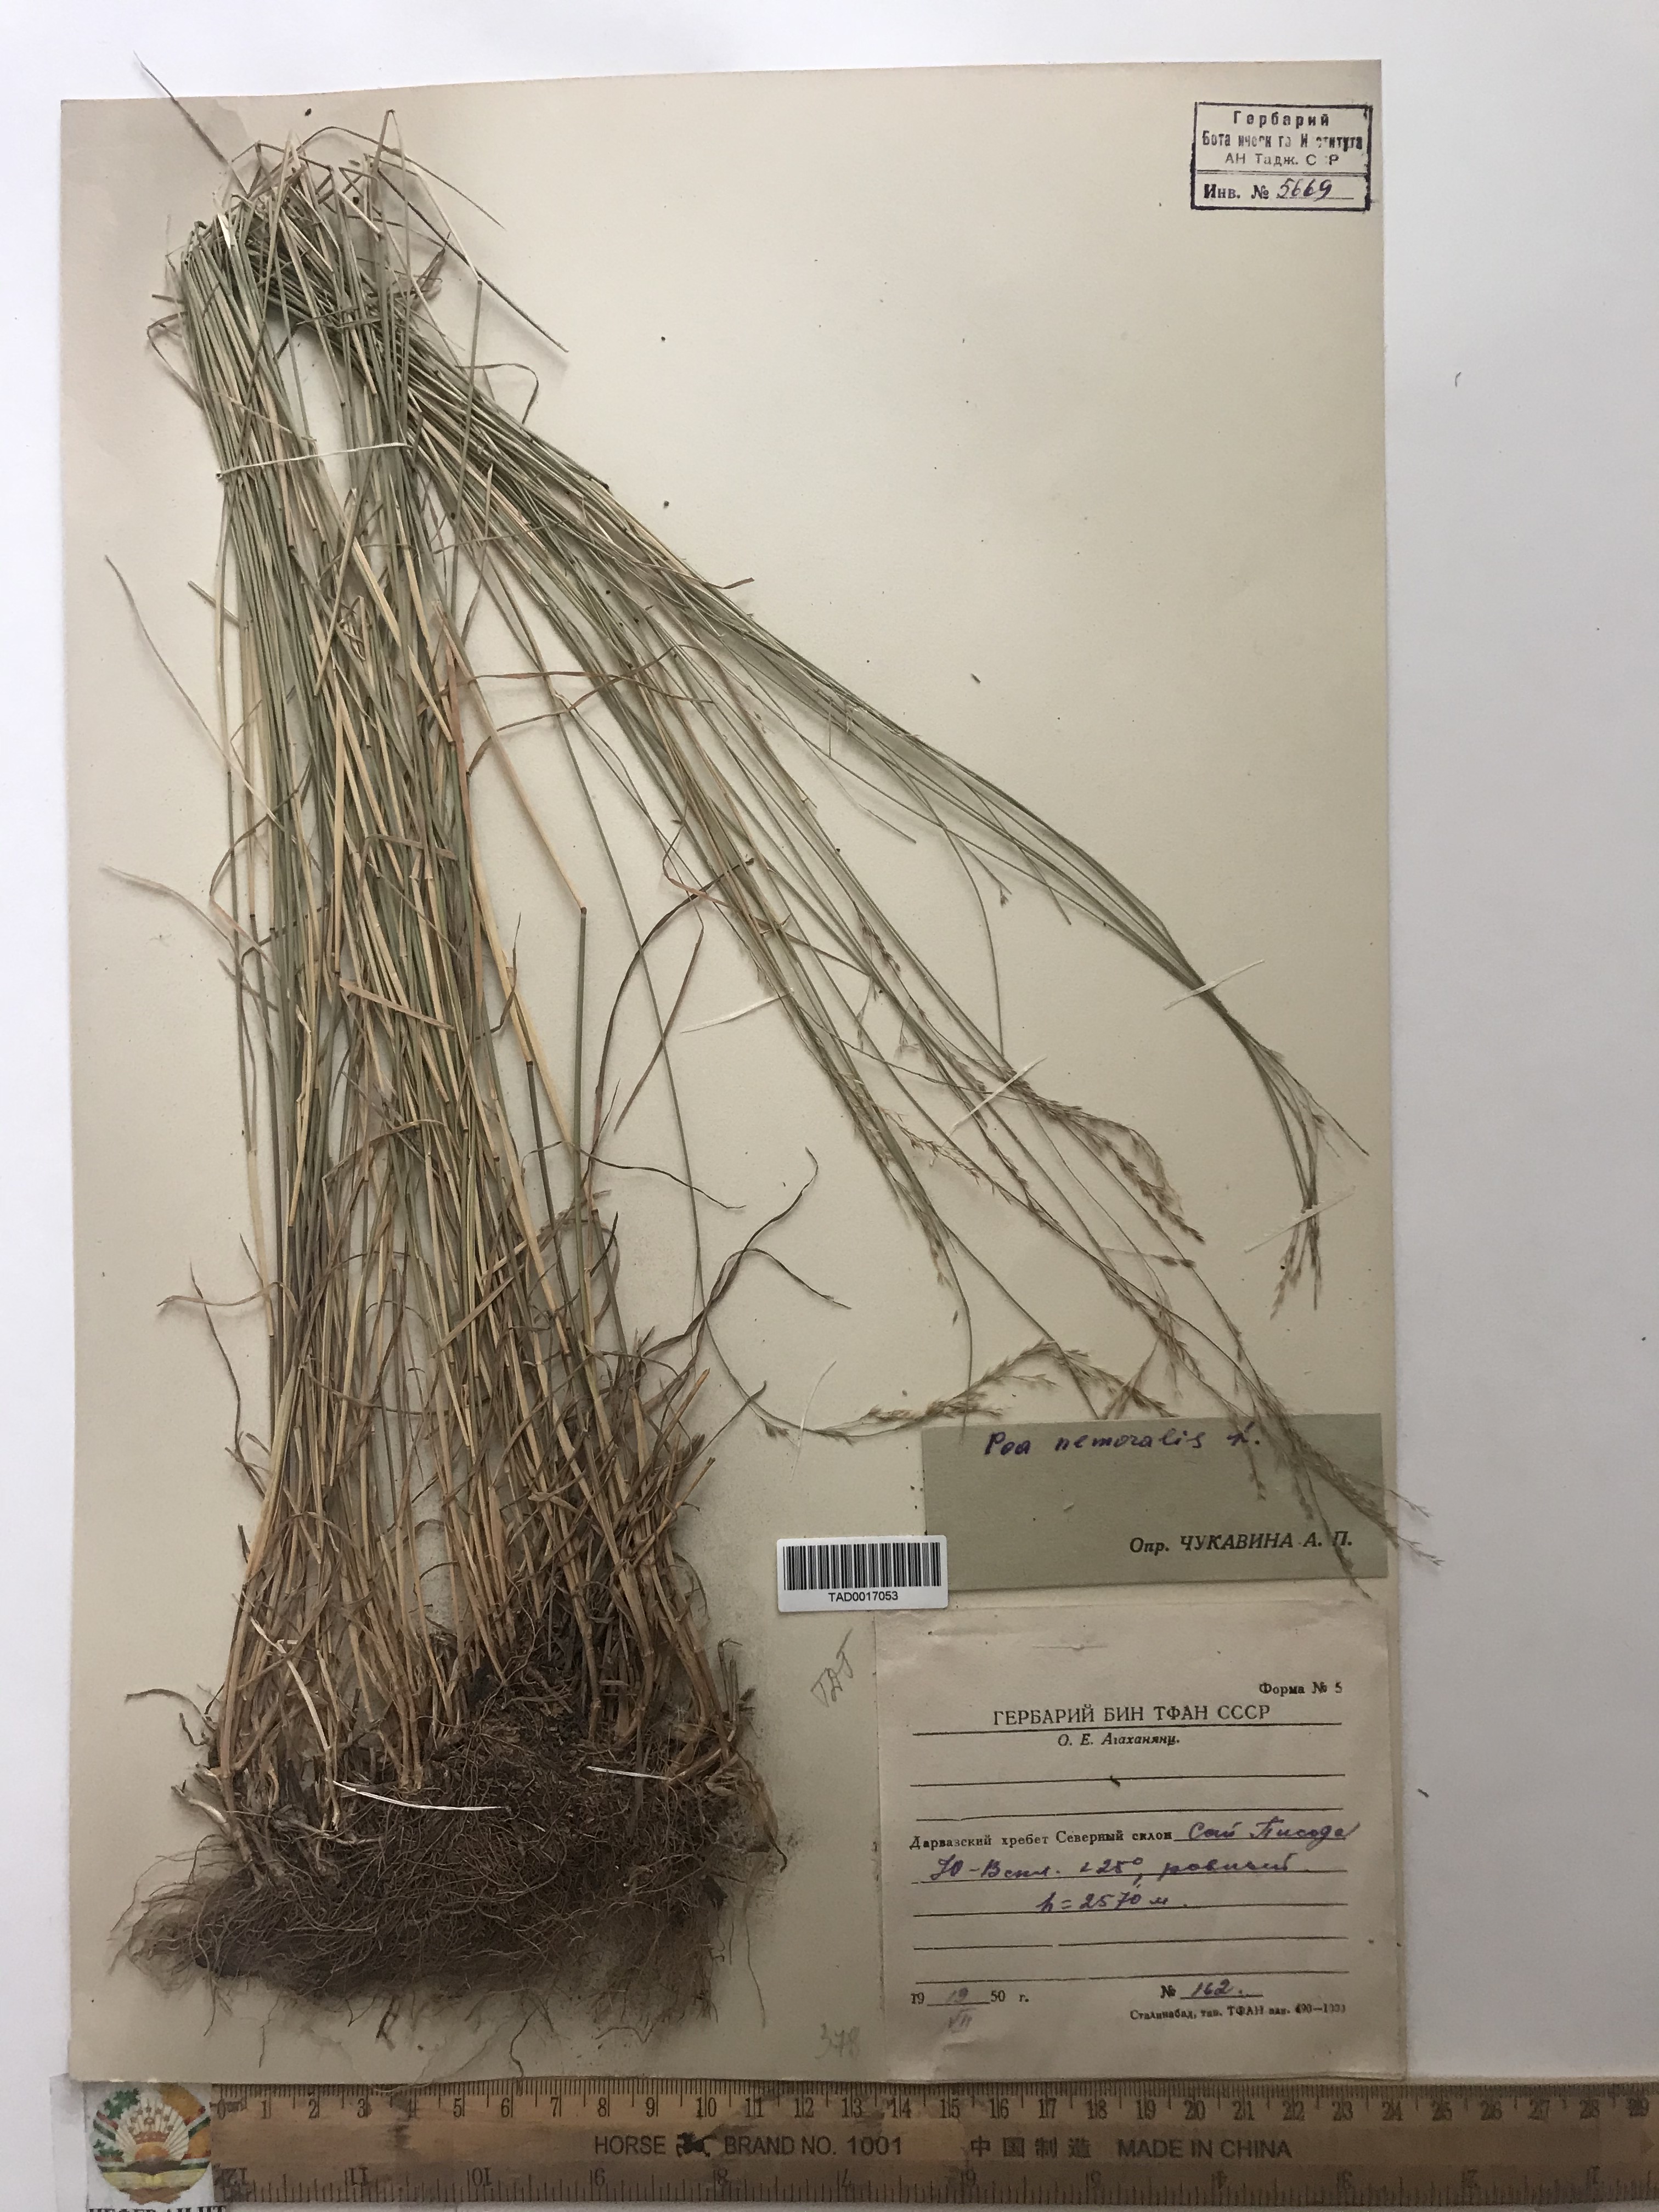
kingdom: Plantae
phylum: Tracheophyta
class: Liliopsida
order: Poales
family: Poaceae
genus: Poa
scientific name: Poa nemoralis
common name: Wood bluegrass
